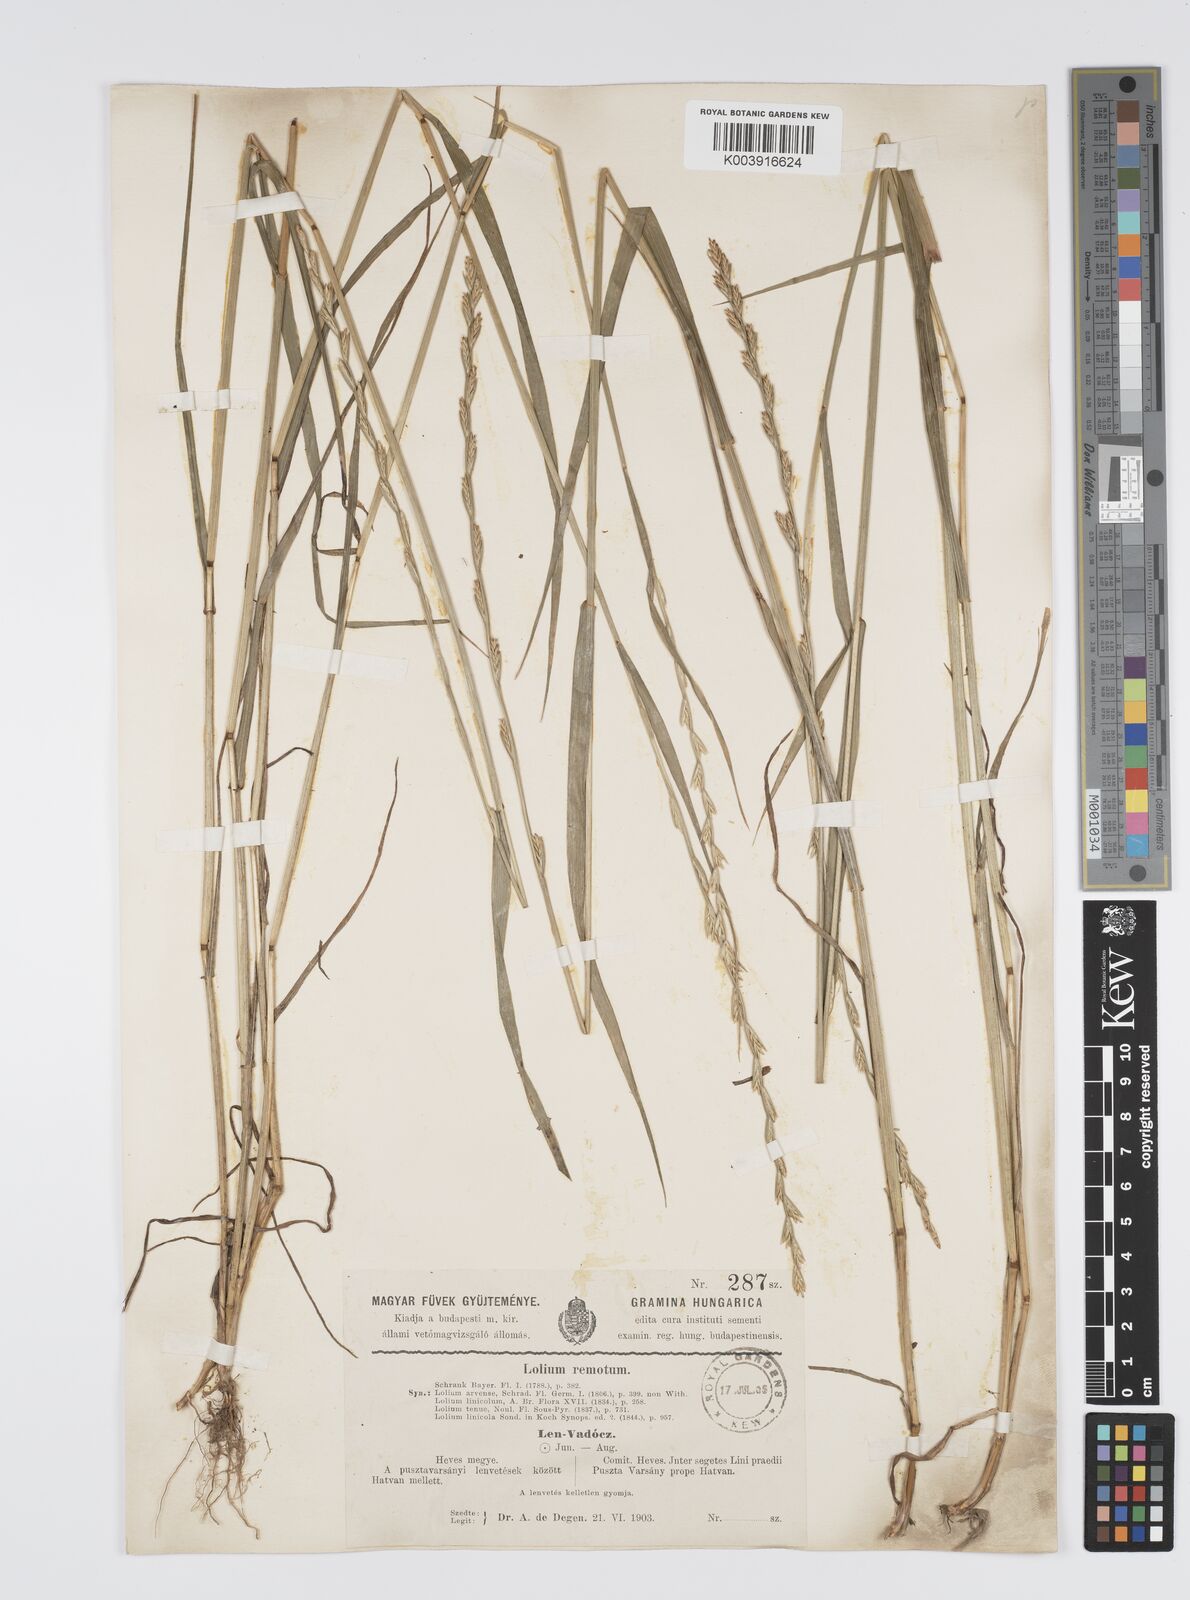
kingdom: Plantae
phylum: Tracheophyta
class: Liliopsida
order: Poales
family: Poaceae
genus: Lolium
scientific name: Lolium remotum
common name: Flaxfield rye-grass
